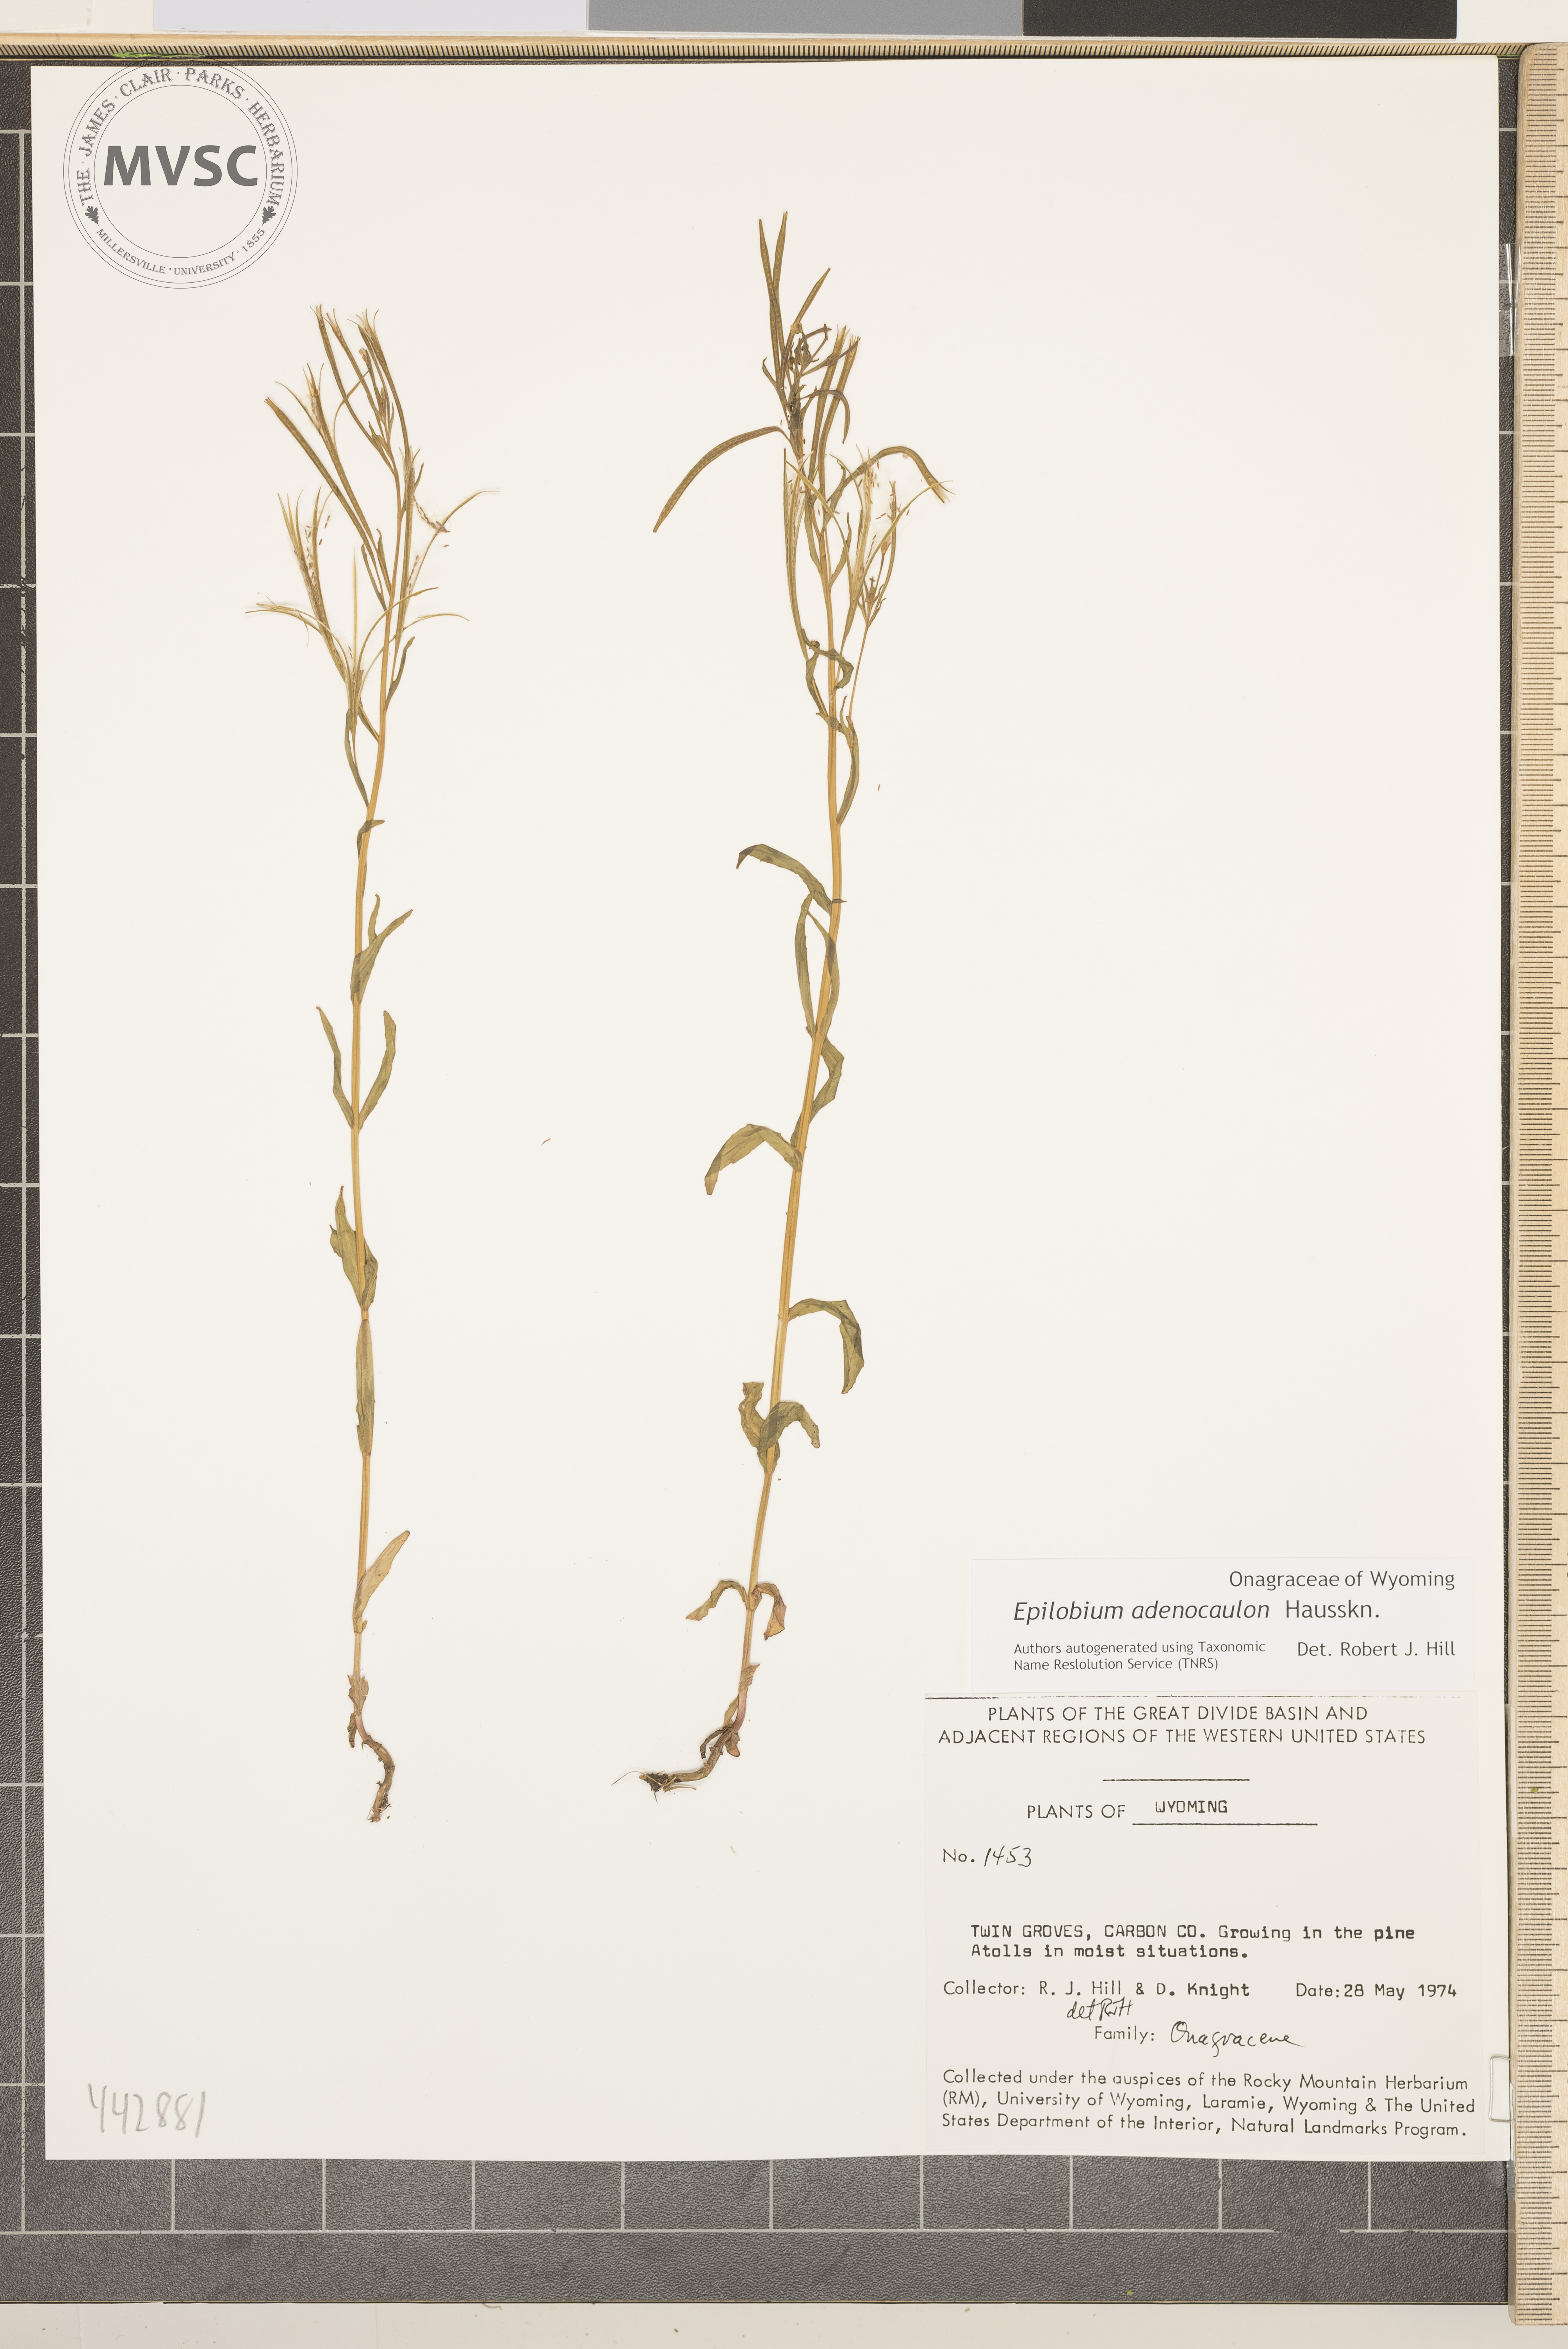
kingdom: Plantae
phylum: Tracheophyta
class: Magnoliopsida
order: Myrtales
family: Onagraceae
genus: Epilobium
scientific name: Epilobium ciliatum
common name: American willowherb
